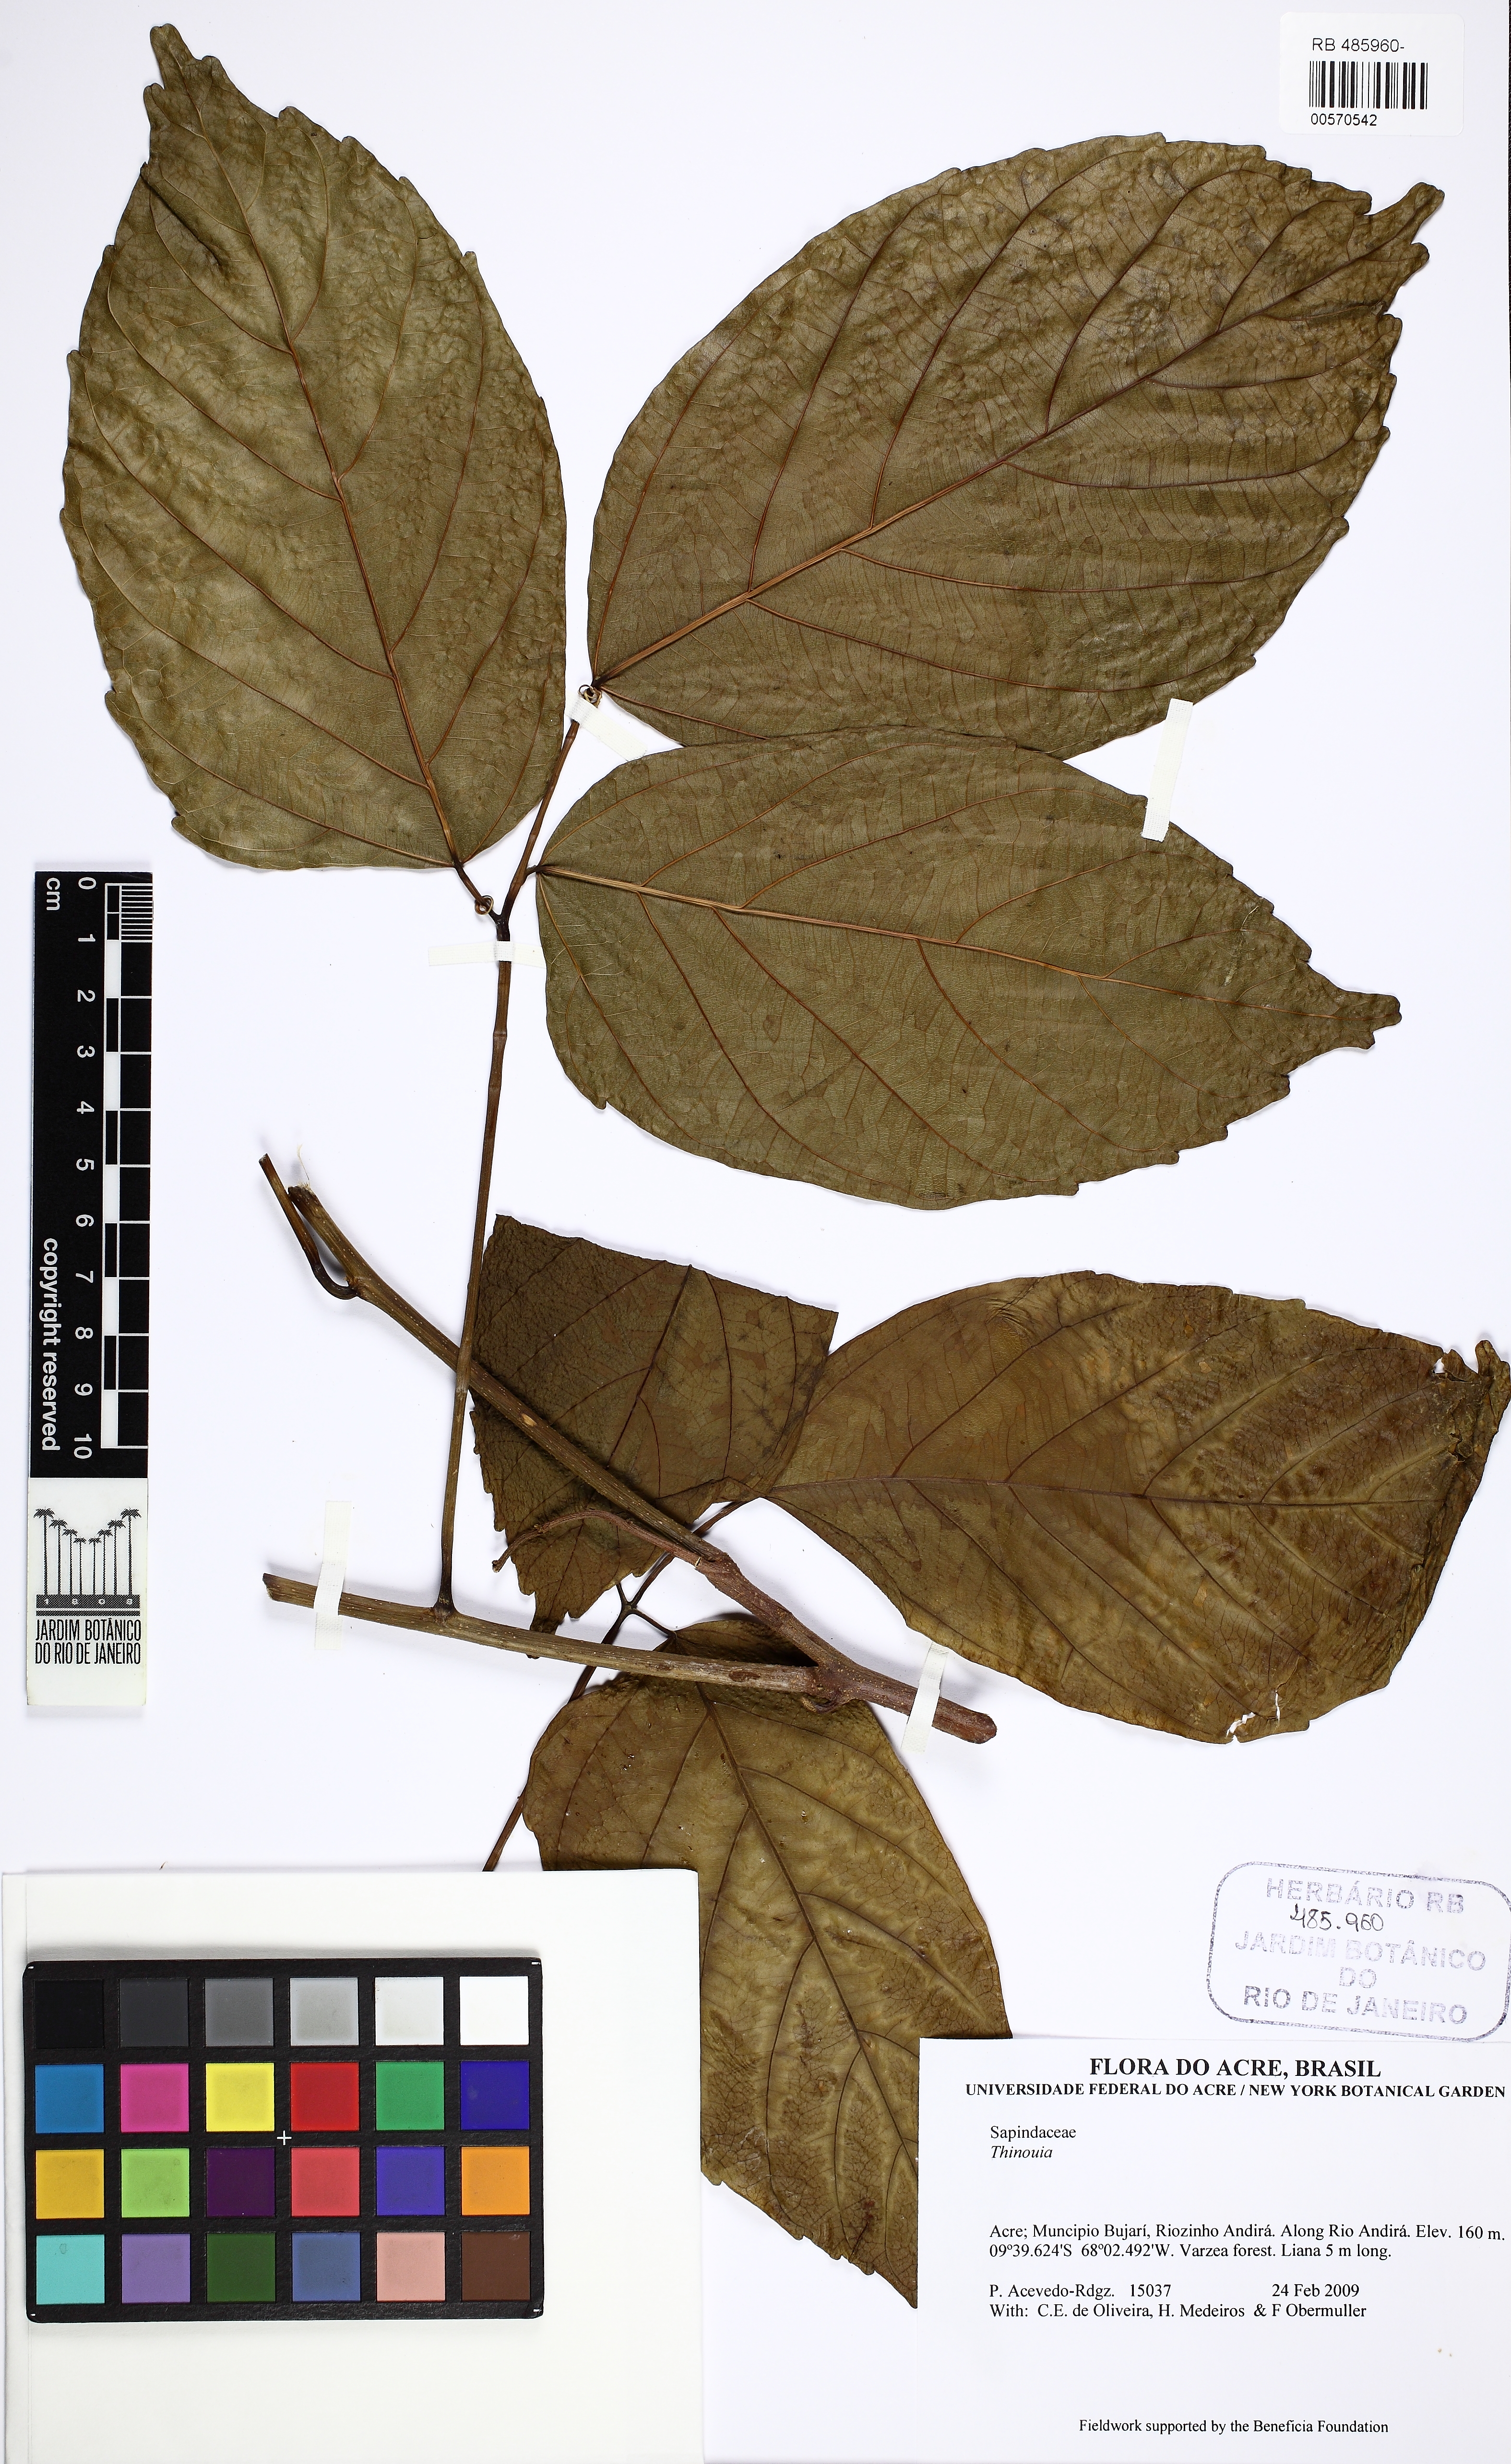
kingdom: Plantae
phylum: Tracheophyta
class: Magnoliopsida
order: Sapindales
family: Sapindaceae
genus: Thinouia
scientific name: Thinouia myriantha
